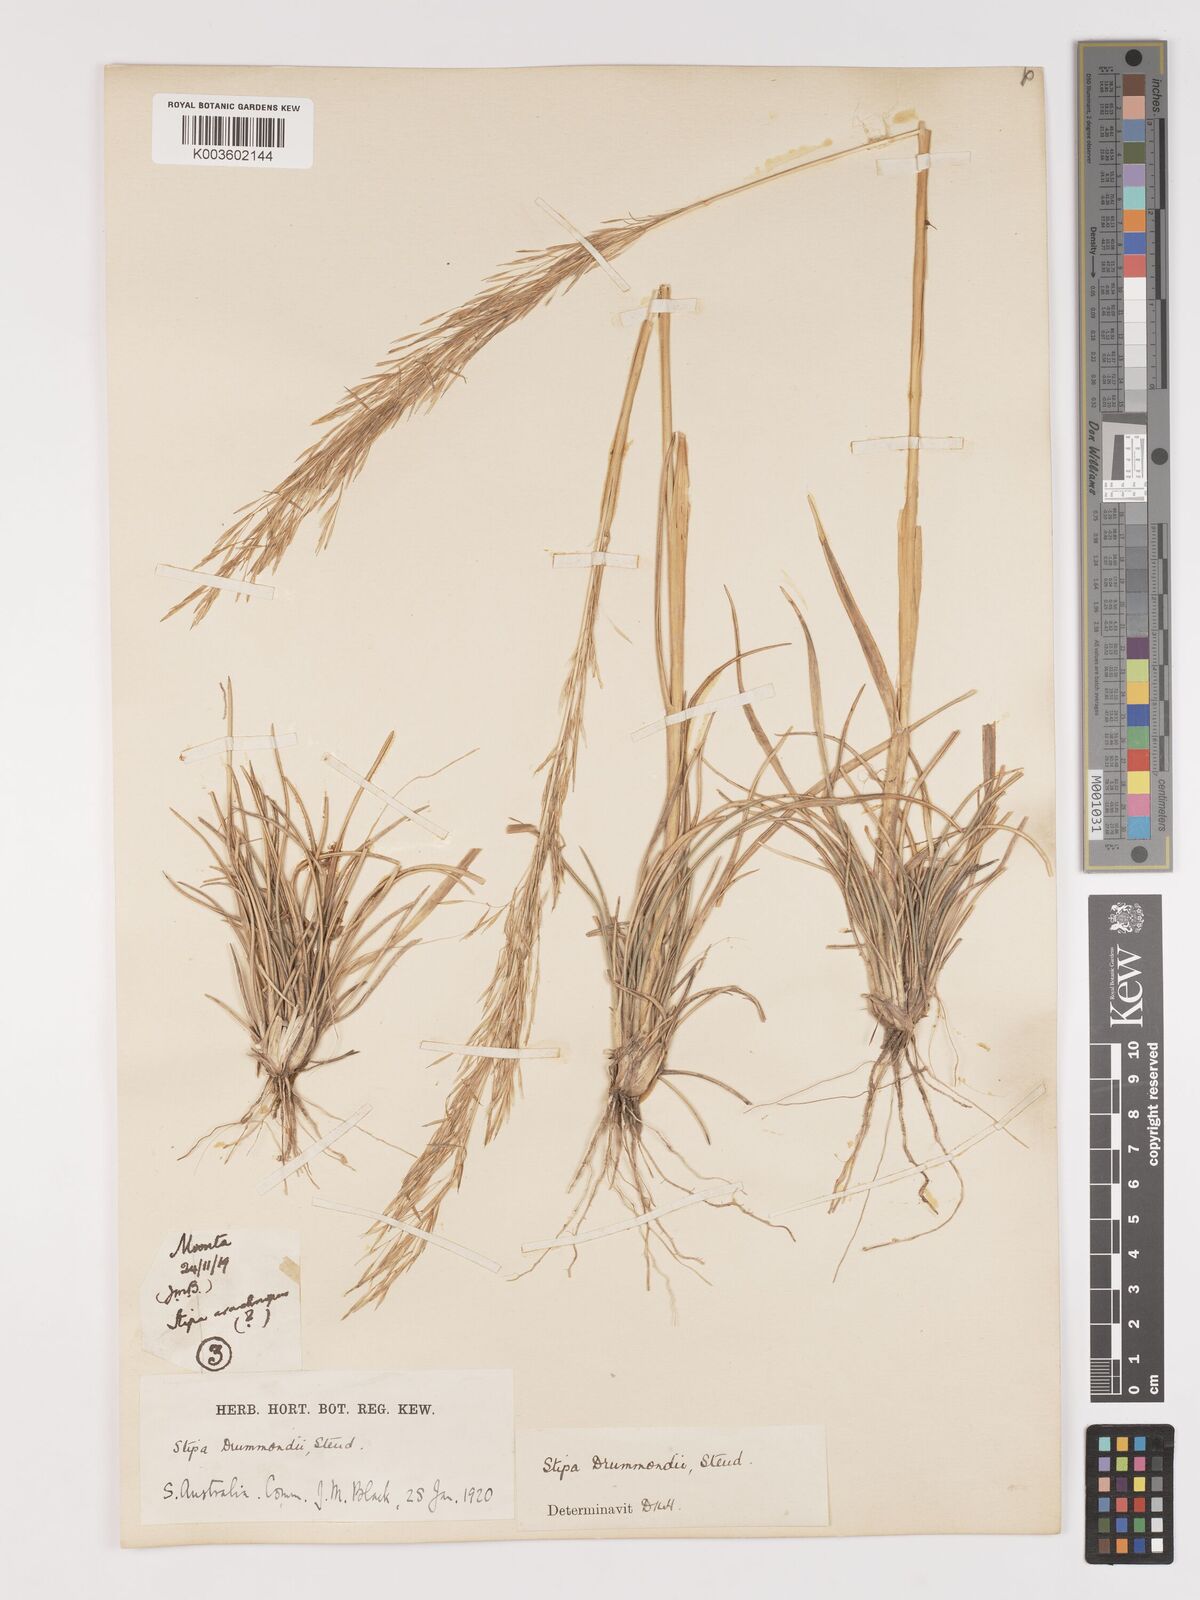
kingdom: Plantae
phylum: Tracheophyta
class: Liliopsida
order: Poales
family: Poaceae
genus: Austrostipa
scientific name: Austrostipa drummondii
